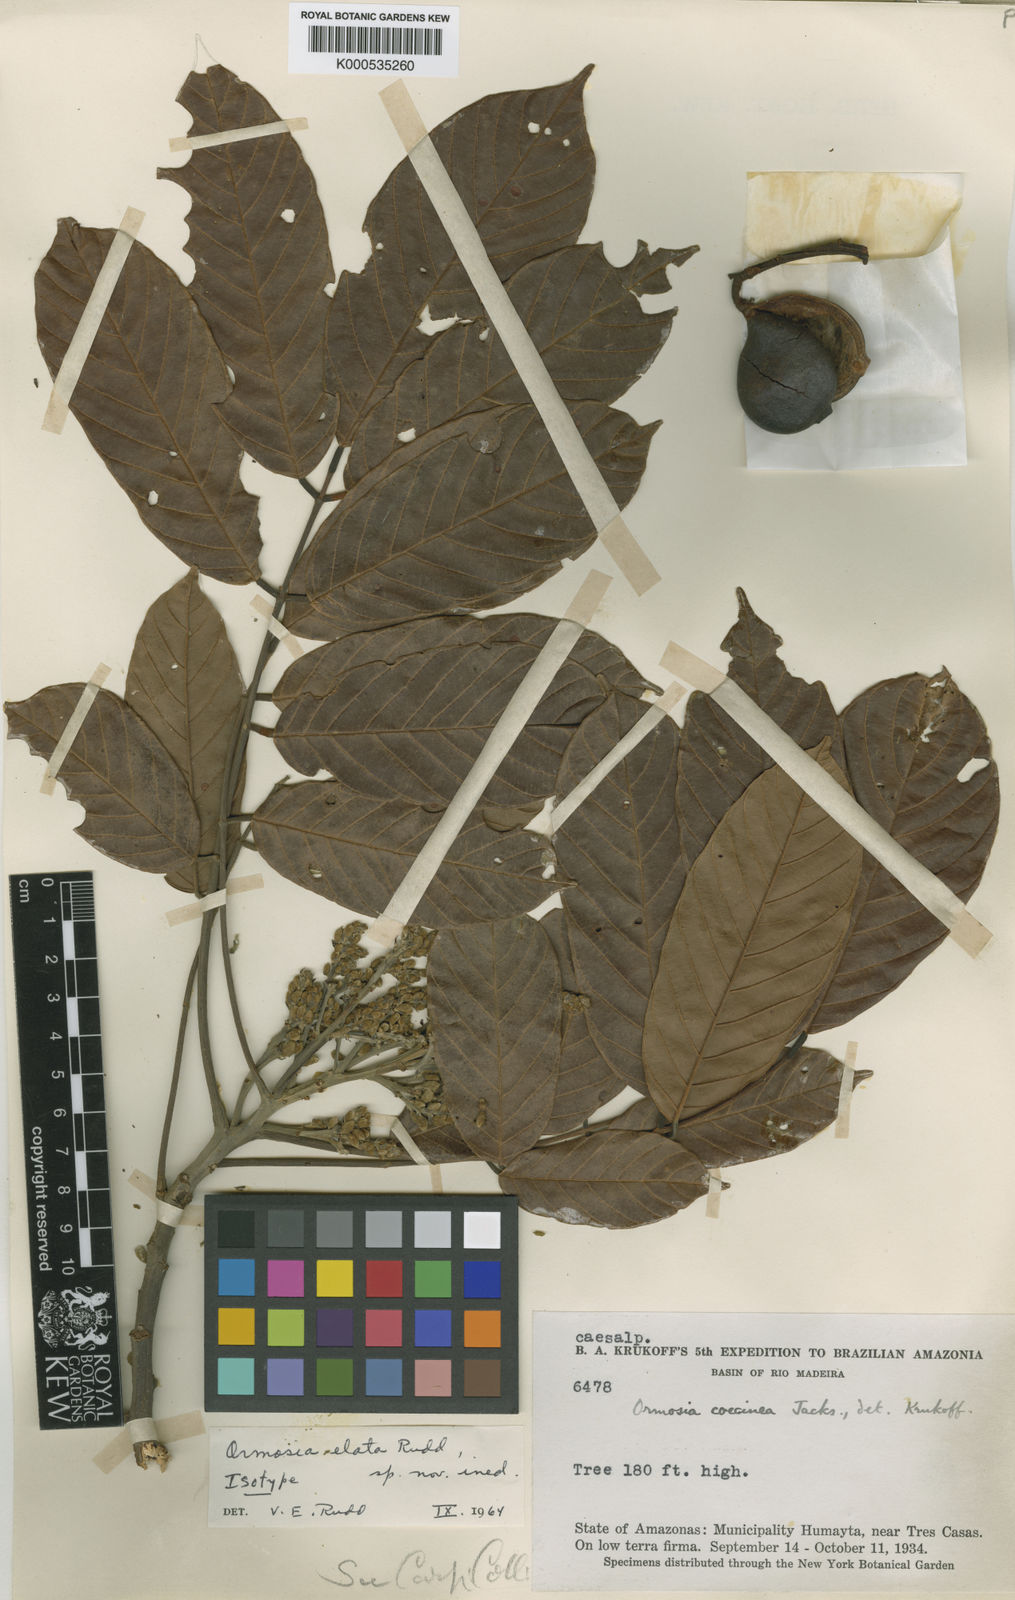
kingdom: Plantae
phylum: Tracheophyta
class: Magnoliopsida
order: Fabales
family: Fabaceae
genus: Ormosia
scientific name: Ormosia smithii
